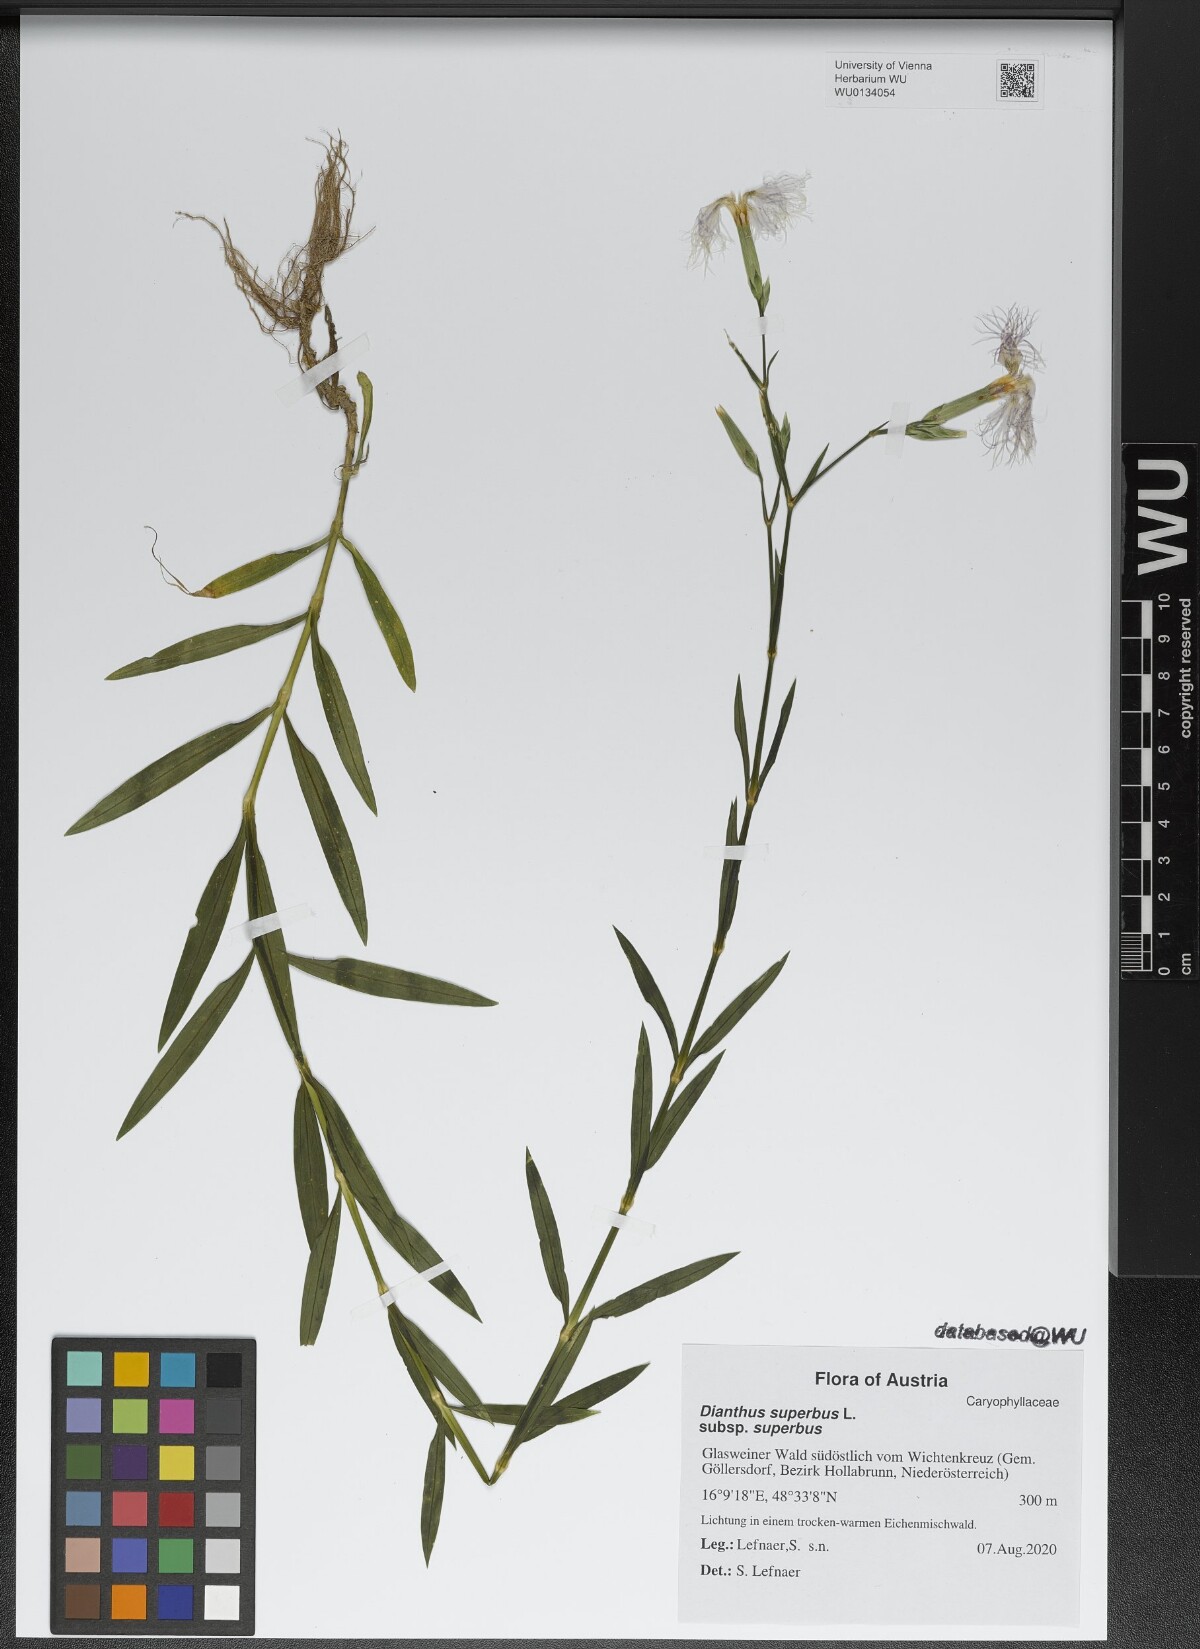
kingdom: Plantae
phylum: Tracheophyta
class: Magnoliopsida
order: Caryophyllales
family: Caryophyllaceae
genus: Dianthus
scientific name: Dianthus superbus
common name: Fringed pink
